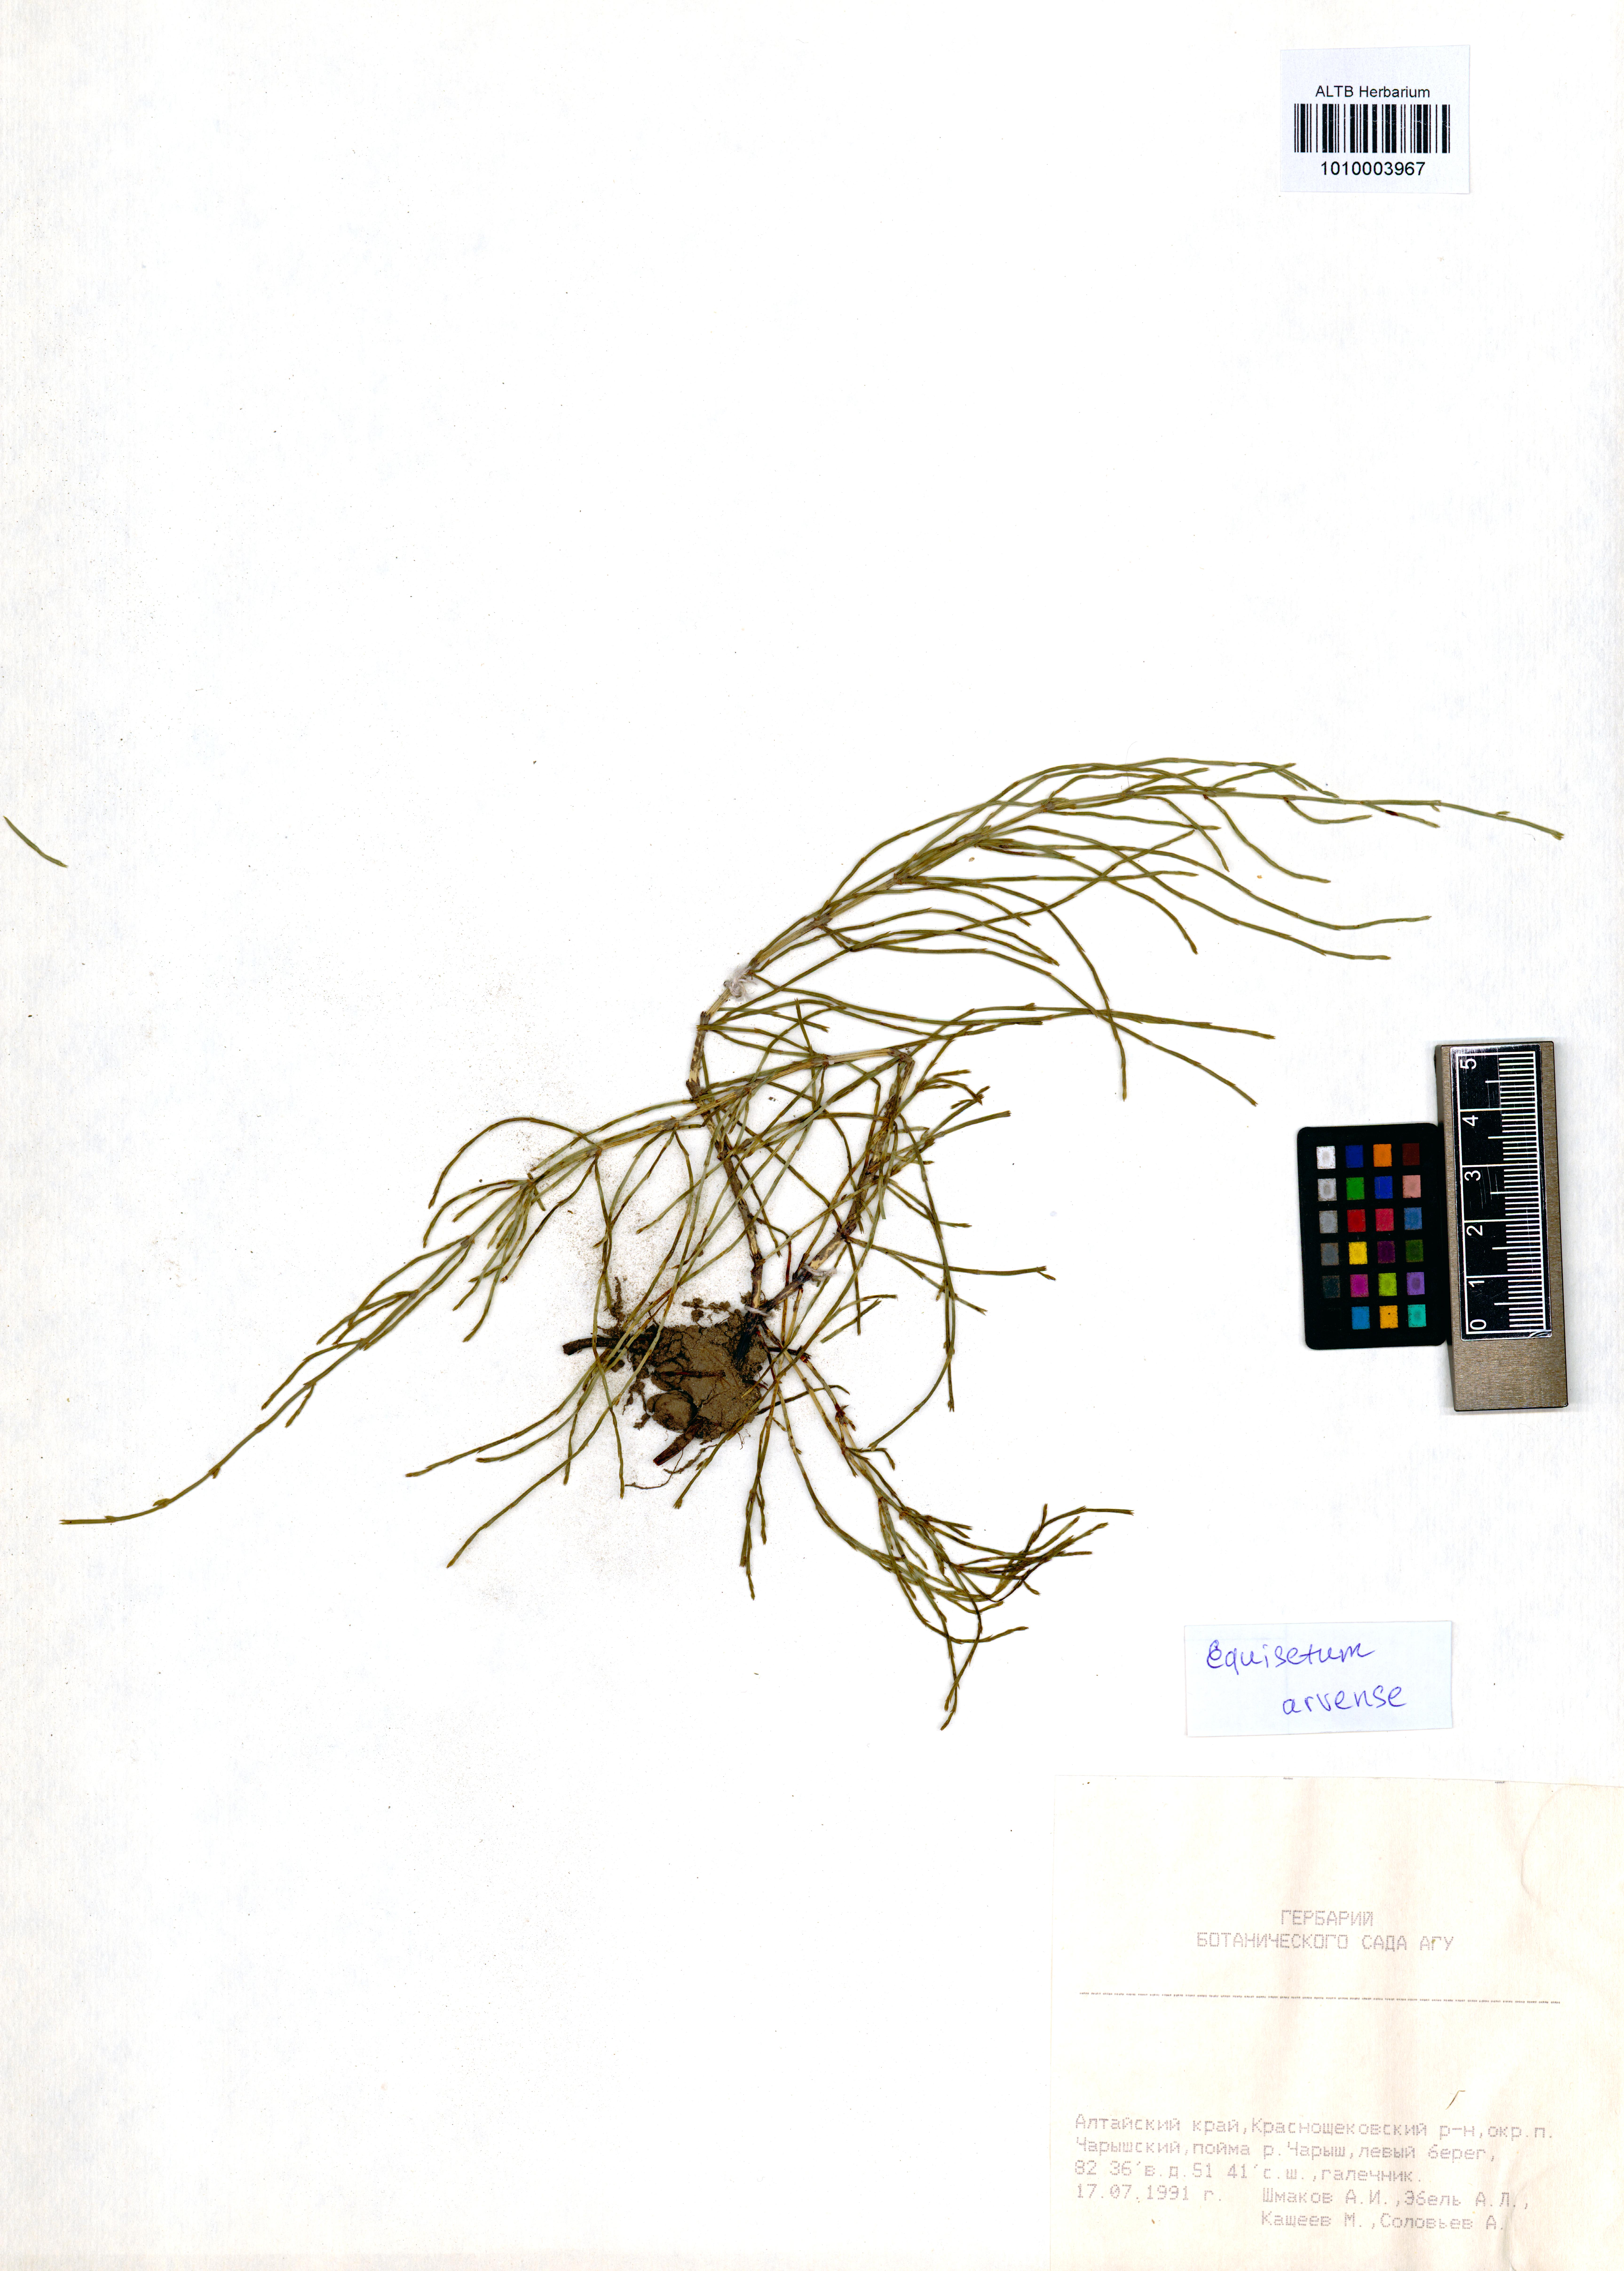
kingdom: Plantae
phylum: Tracheophyta
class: Polypodiopsida
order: Equisetales
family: Equisetaceae
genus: Equisetum
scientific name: Equisetum arvense
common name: Field horsetail
